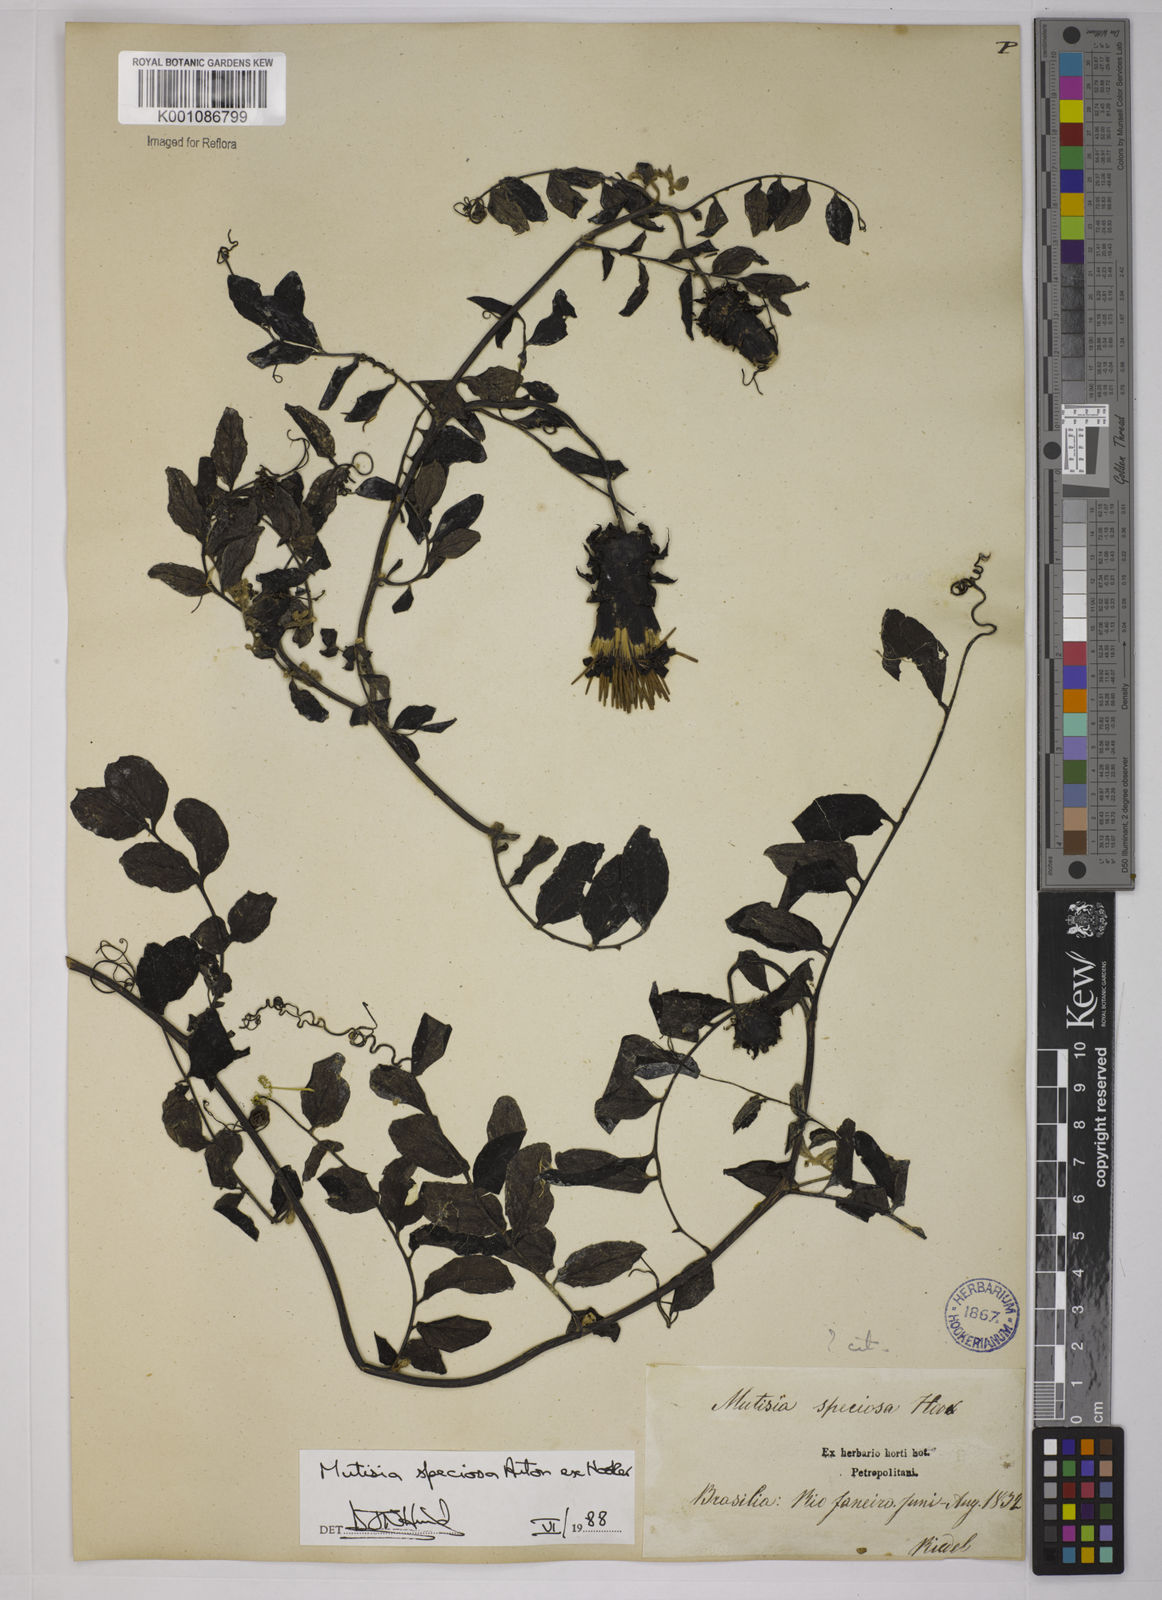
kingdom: Plantae
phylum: Tracheophyta
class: Magnoliopsida
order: Asterales
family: Asteraceae
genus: Mutisia
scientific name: Mutisia speciosa
